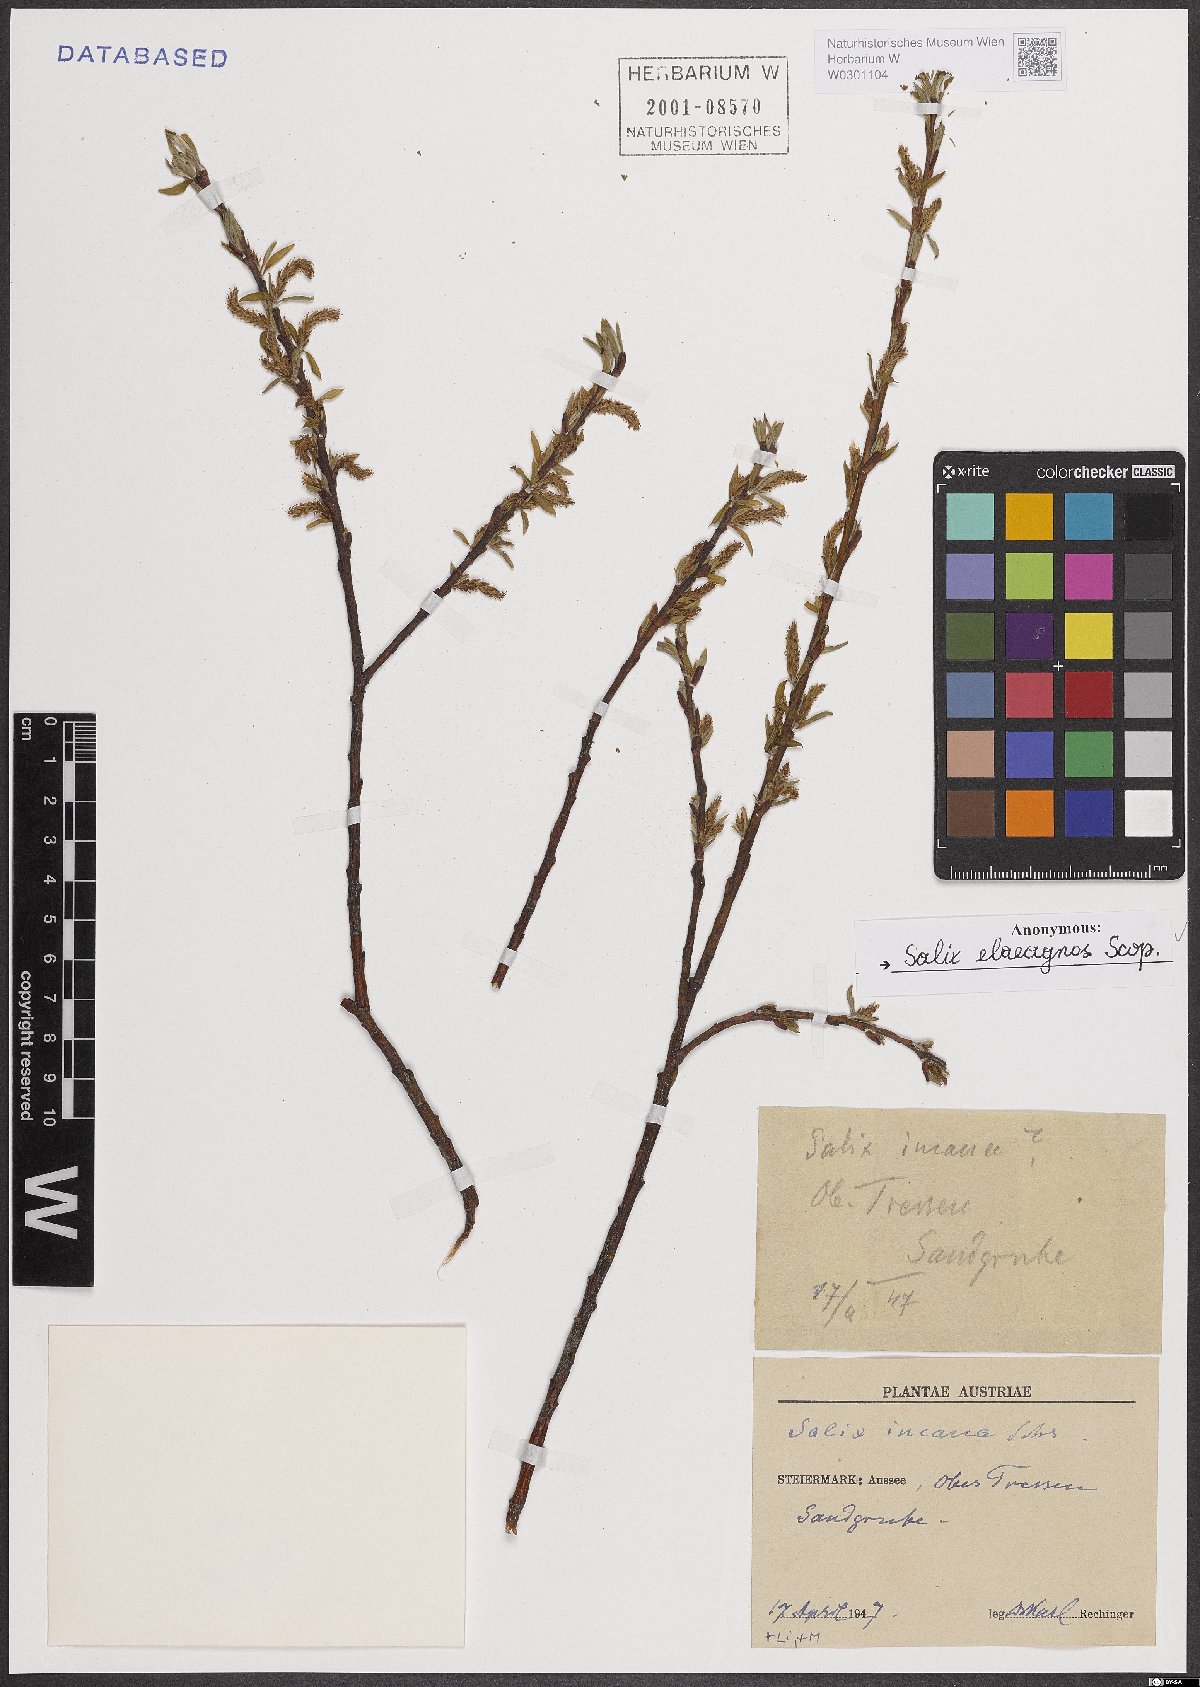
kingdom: Plantae
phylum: Tracheophyta
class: Magnoliopsida
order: Malpighiales
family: Salicaceae
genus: Salix
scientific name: Salix eleagnos
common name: Elaeagnus willow
